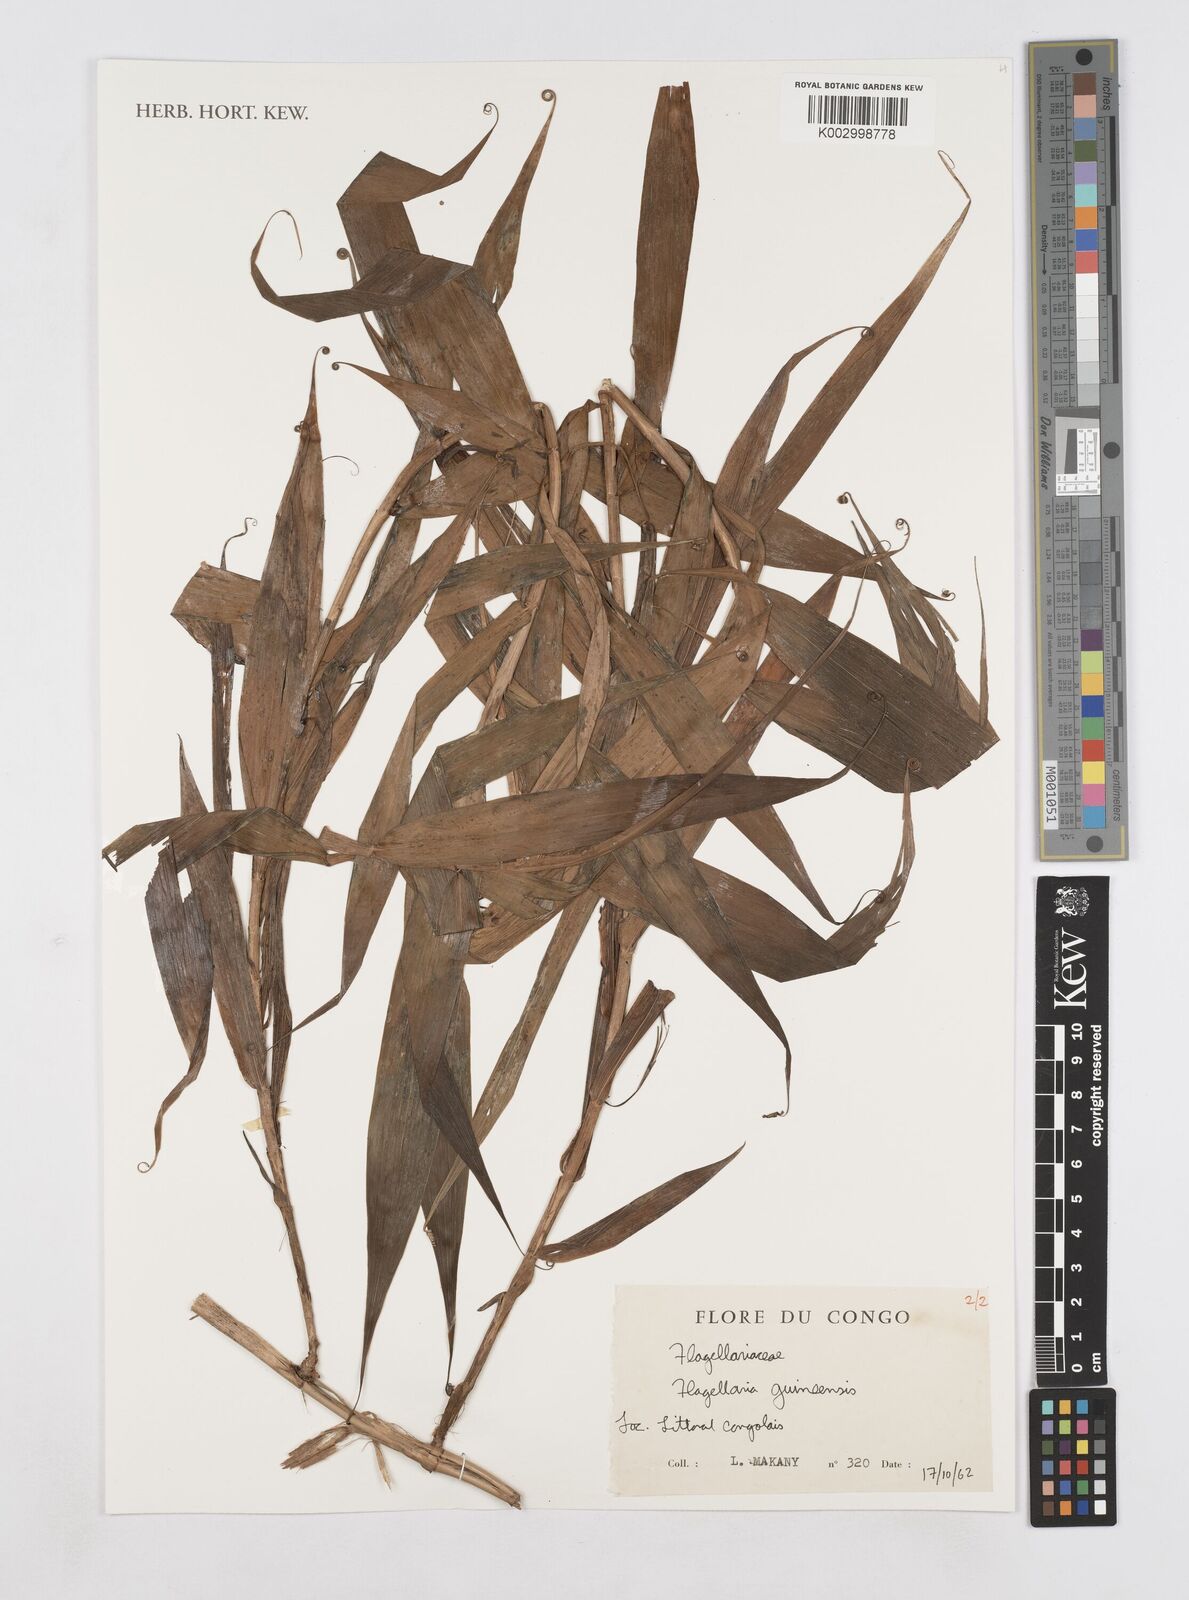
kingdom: Plantae
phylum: Tracheophyta
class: Liliopsida
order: Poales
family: Flagellariaceae
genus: Flagellaria
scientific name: Flagellaria guineensis
